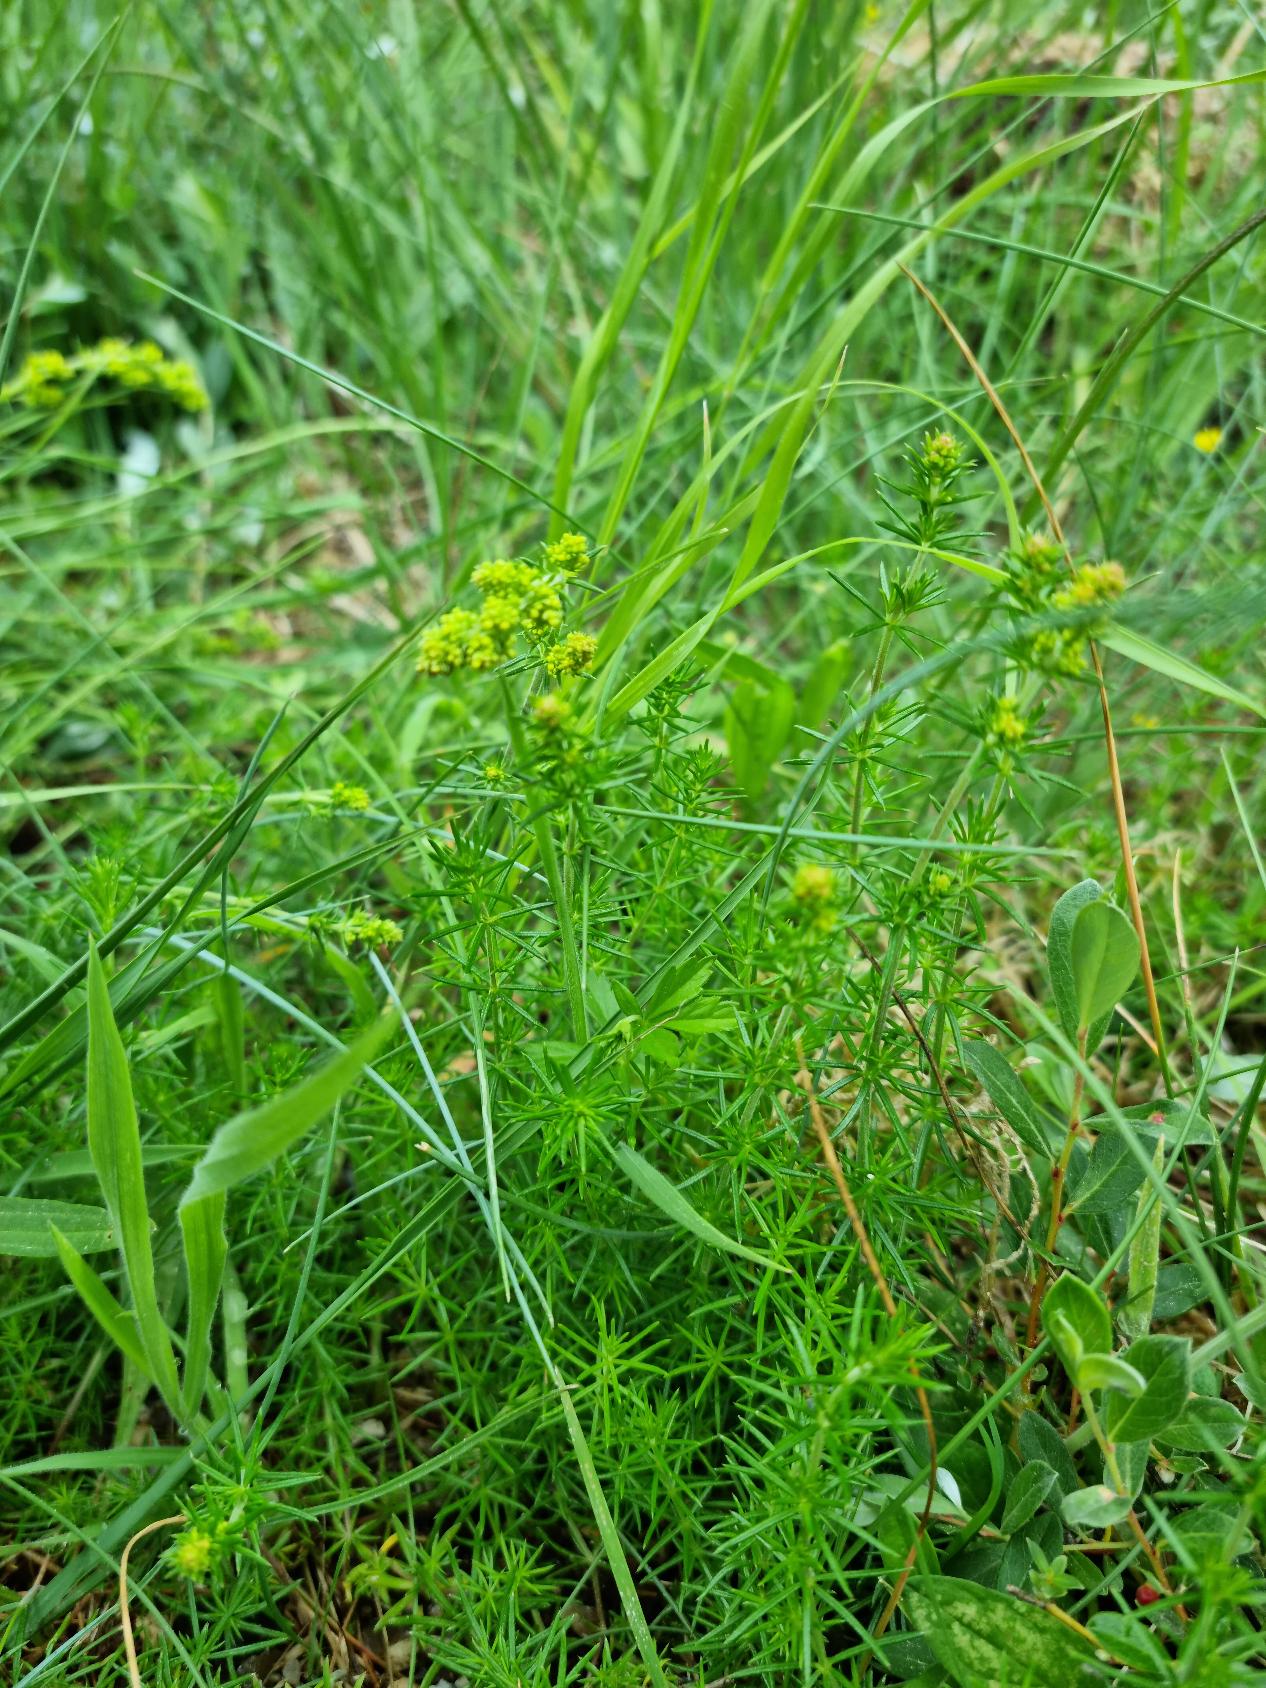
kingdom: Plantae
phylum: Tracheophyta
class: Magnoliopsida
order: Gentianales
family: Rubiaceae
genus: Galium
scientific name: Galium verum
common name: Gul snerre
